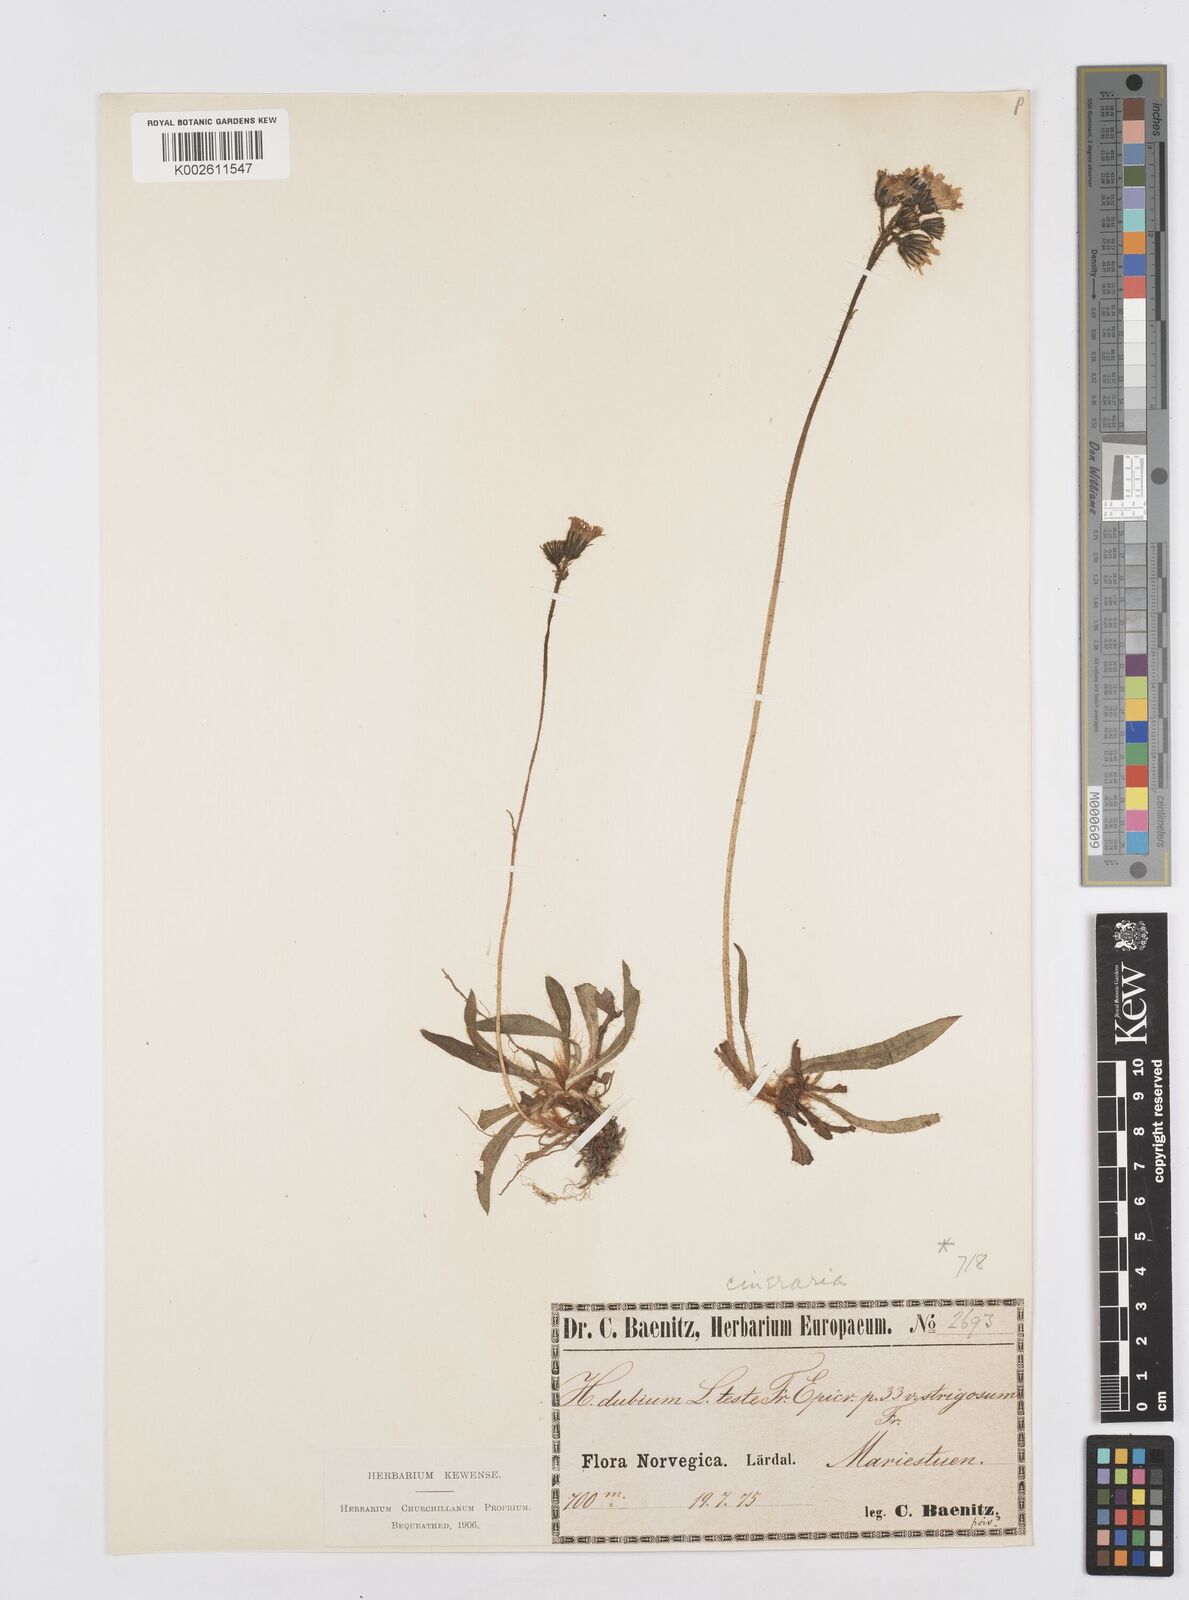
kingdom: Plantae
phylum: Tracheophyta
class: Magnoliopsida
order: Asterales
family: Asteraceae
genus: Pilosella
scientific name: Pilosella moechiadia
